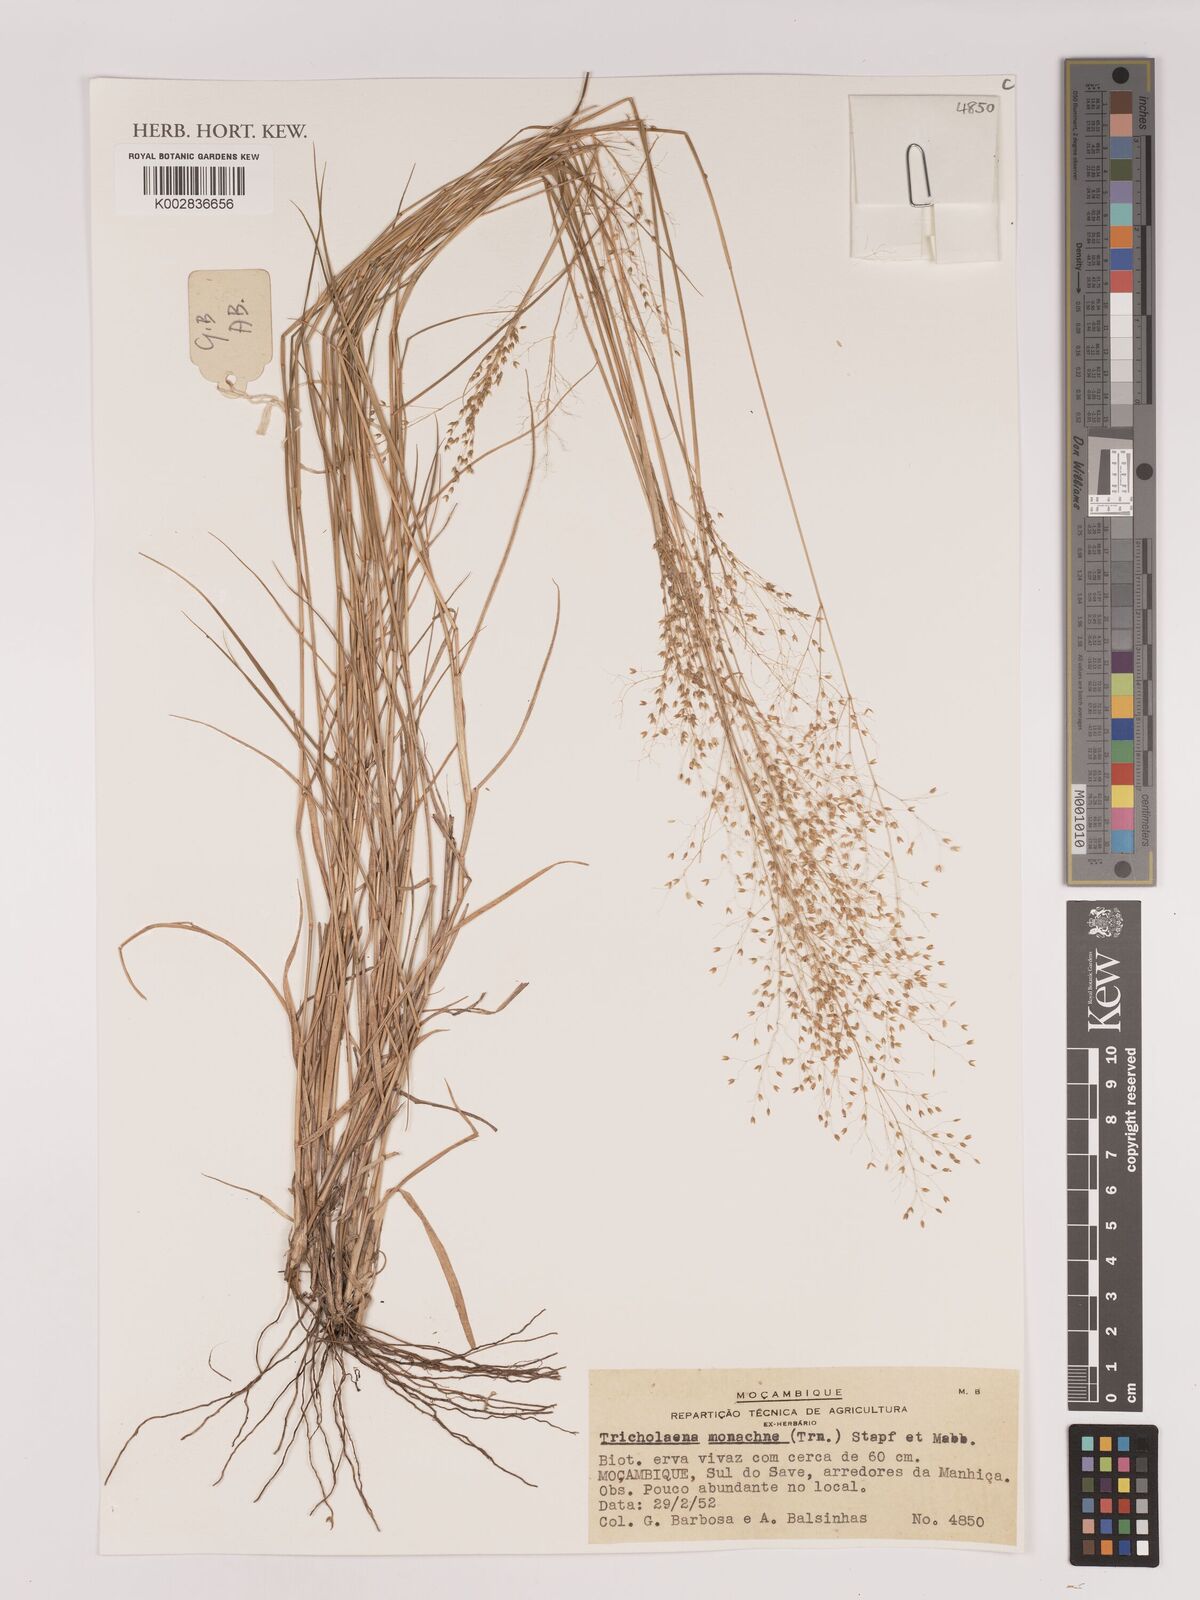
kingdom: Plantae
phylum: Tracheophyta
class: Liliopsida
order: Poales
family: Poaceae
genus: Tricholaena
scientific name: Tricholaena monachne
